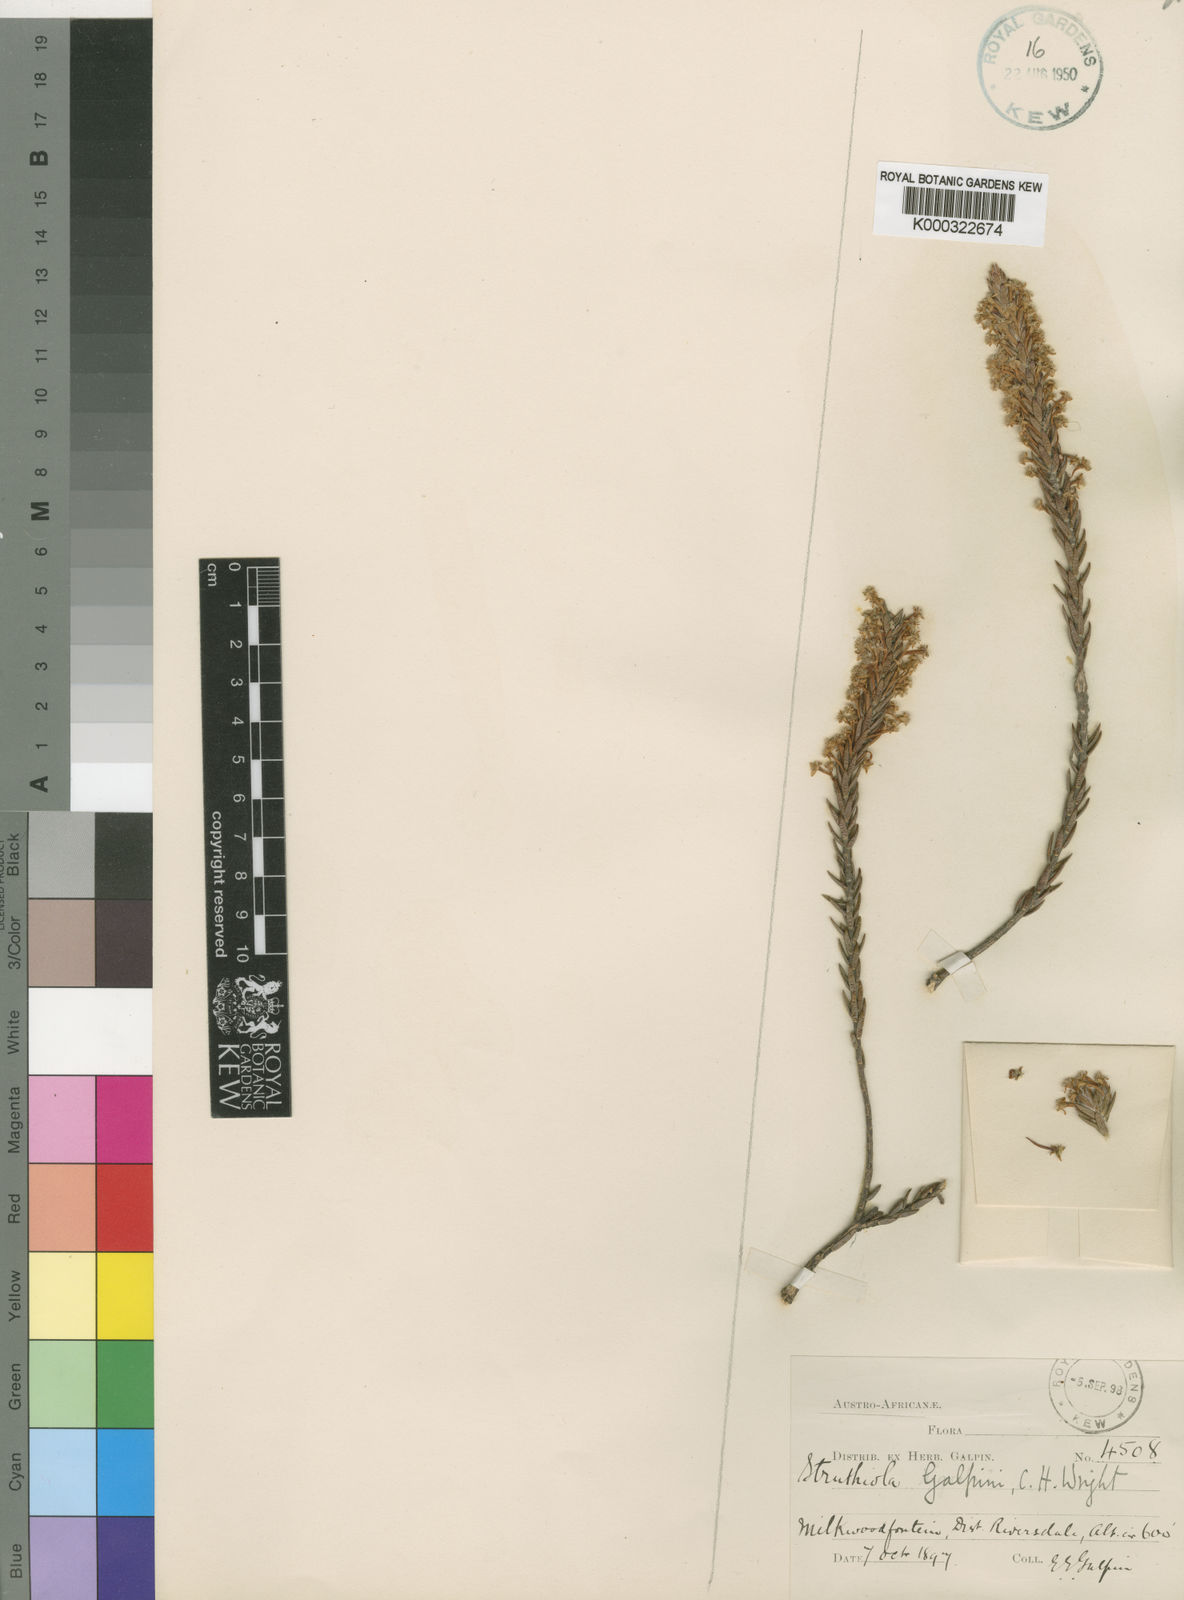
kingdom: Plantae
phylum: Tracheophyta
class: Magnoliopsida
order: Malvales
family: Thymelaeaceae
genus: Struthiola
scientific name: Struthiola rigida
